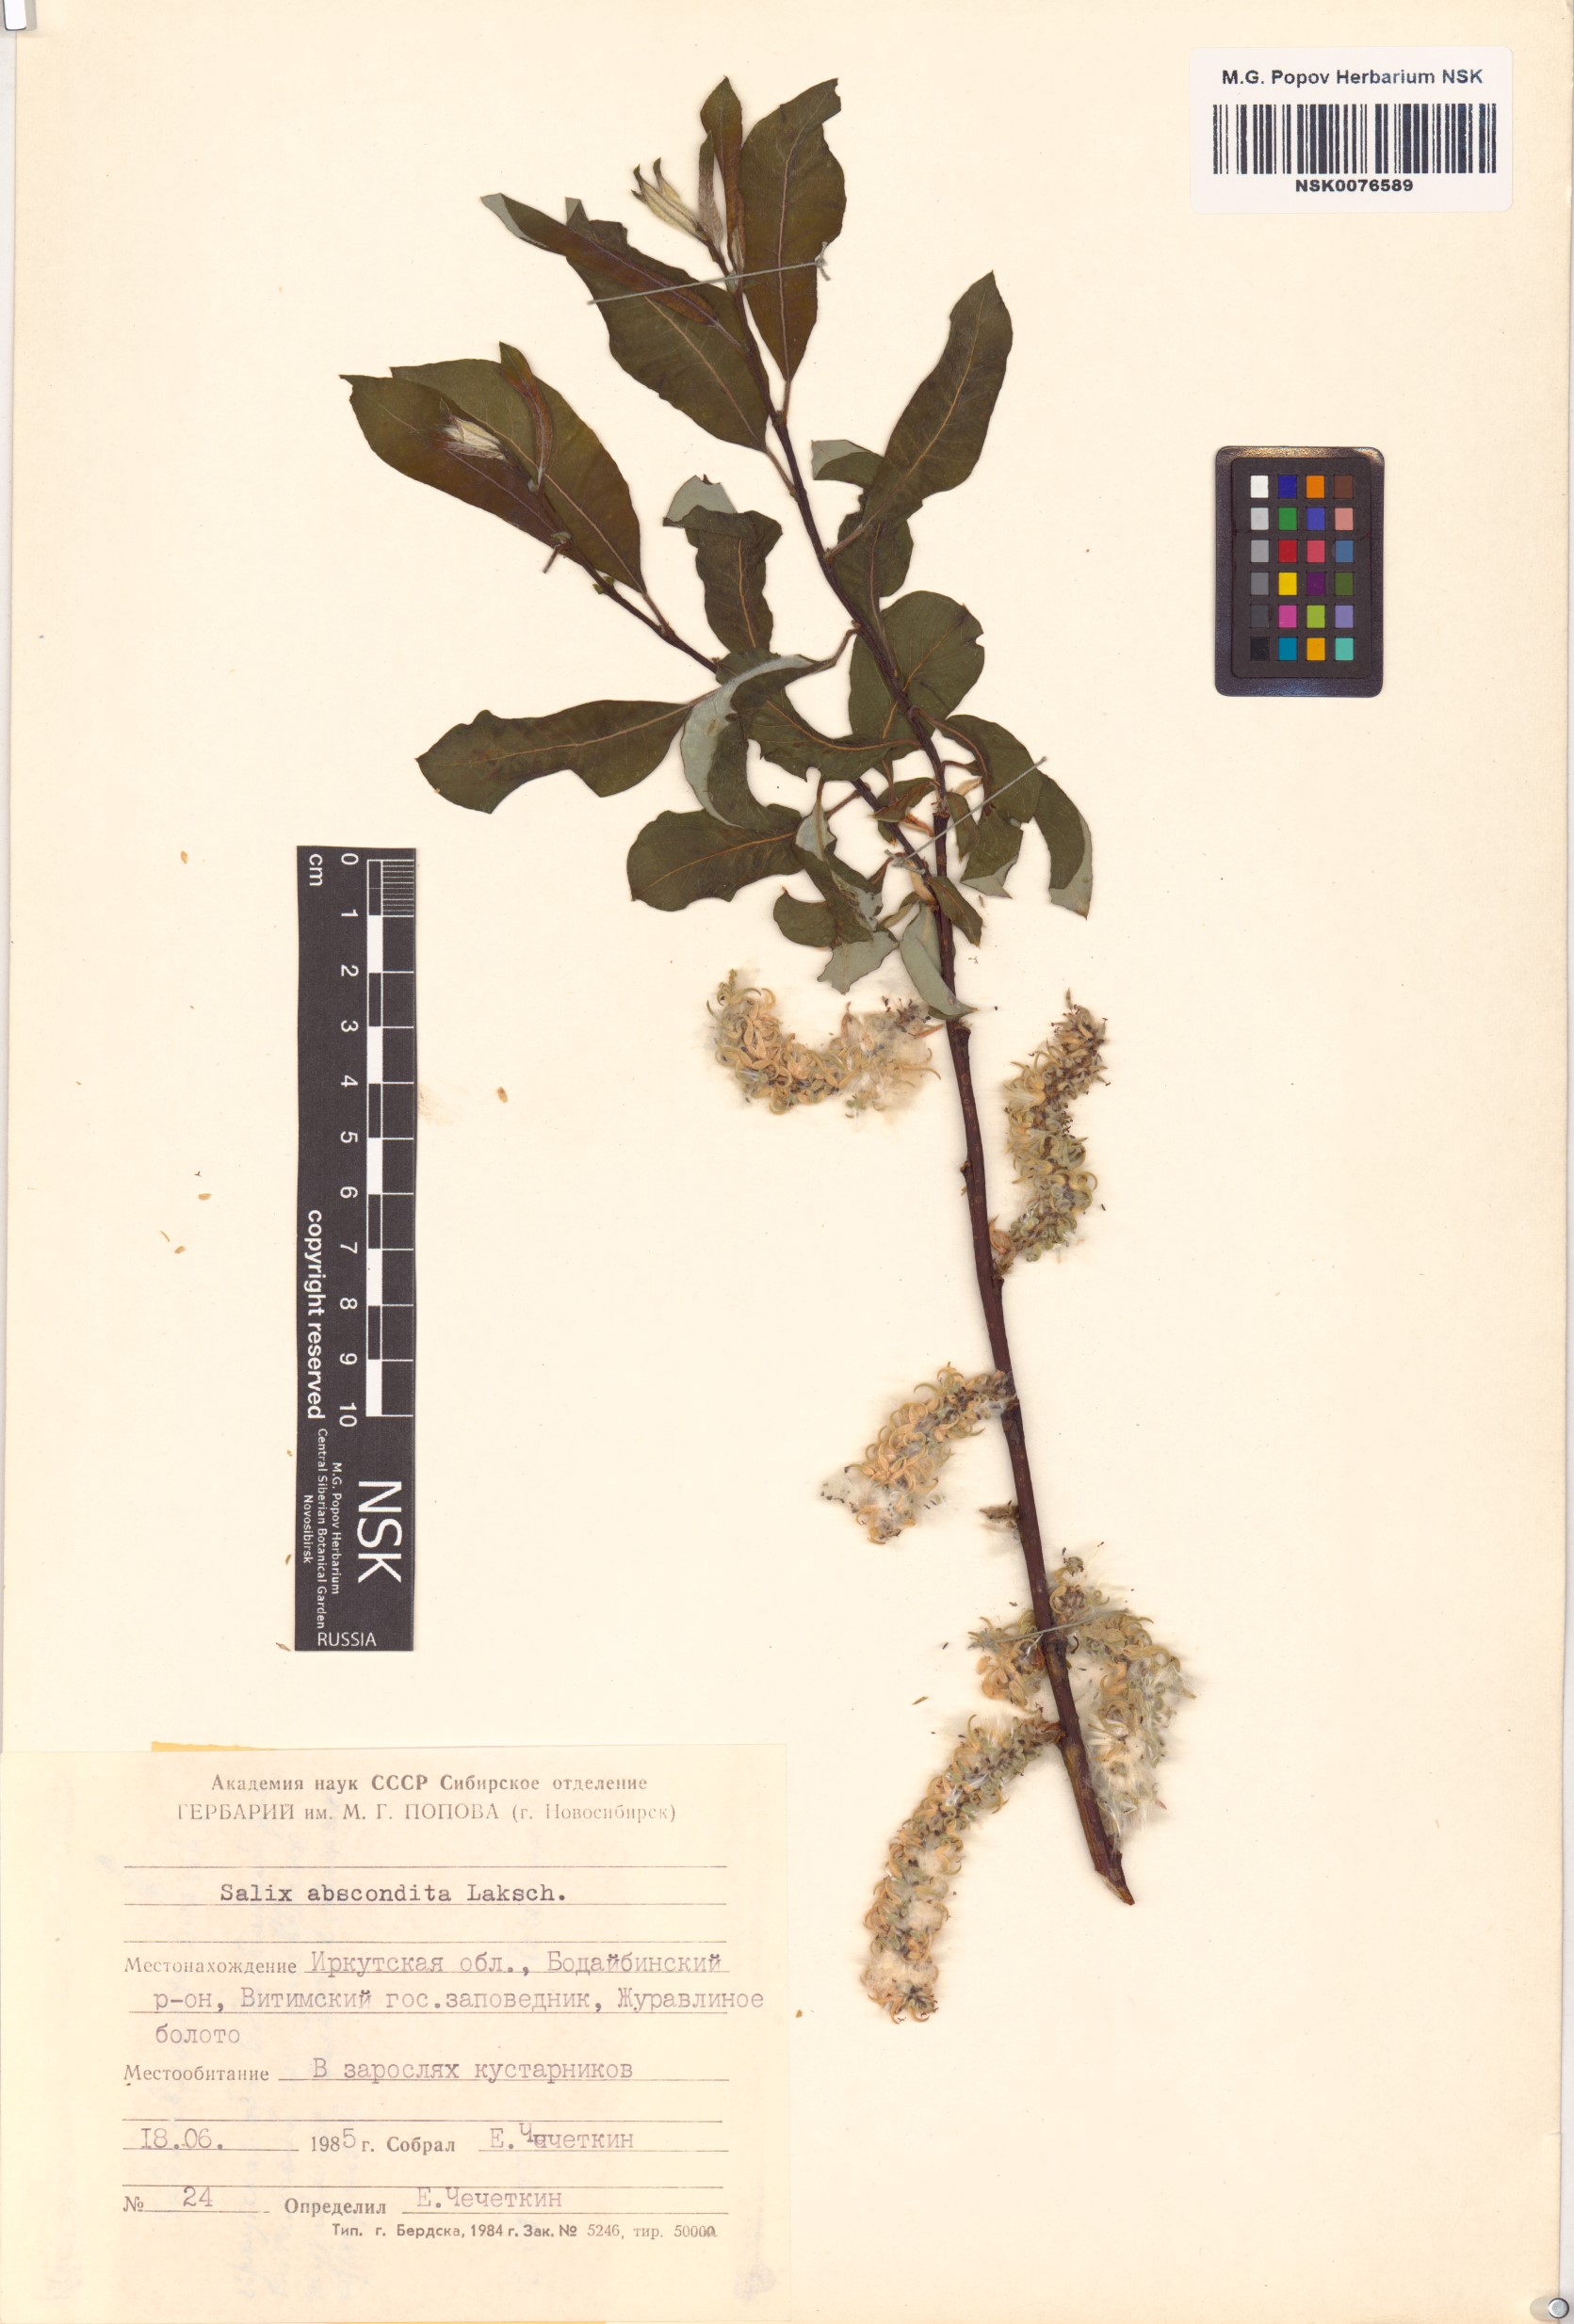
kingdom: Plantae
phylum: Tracheophyta
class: Magnoliopsida
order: Malpighiales
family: Salicaceae
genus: Salix
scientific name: Salix abscondita
